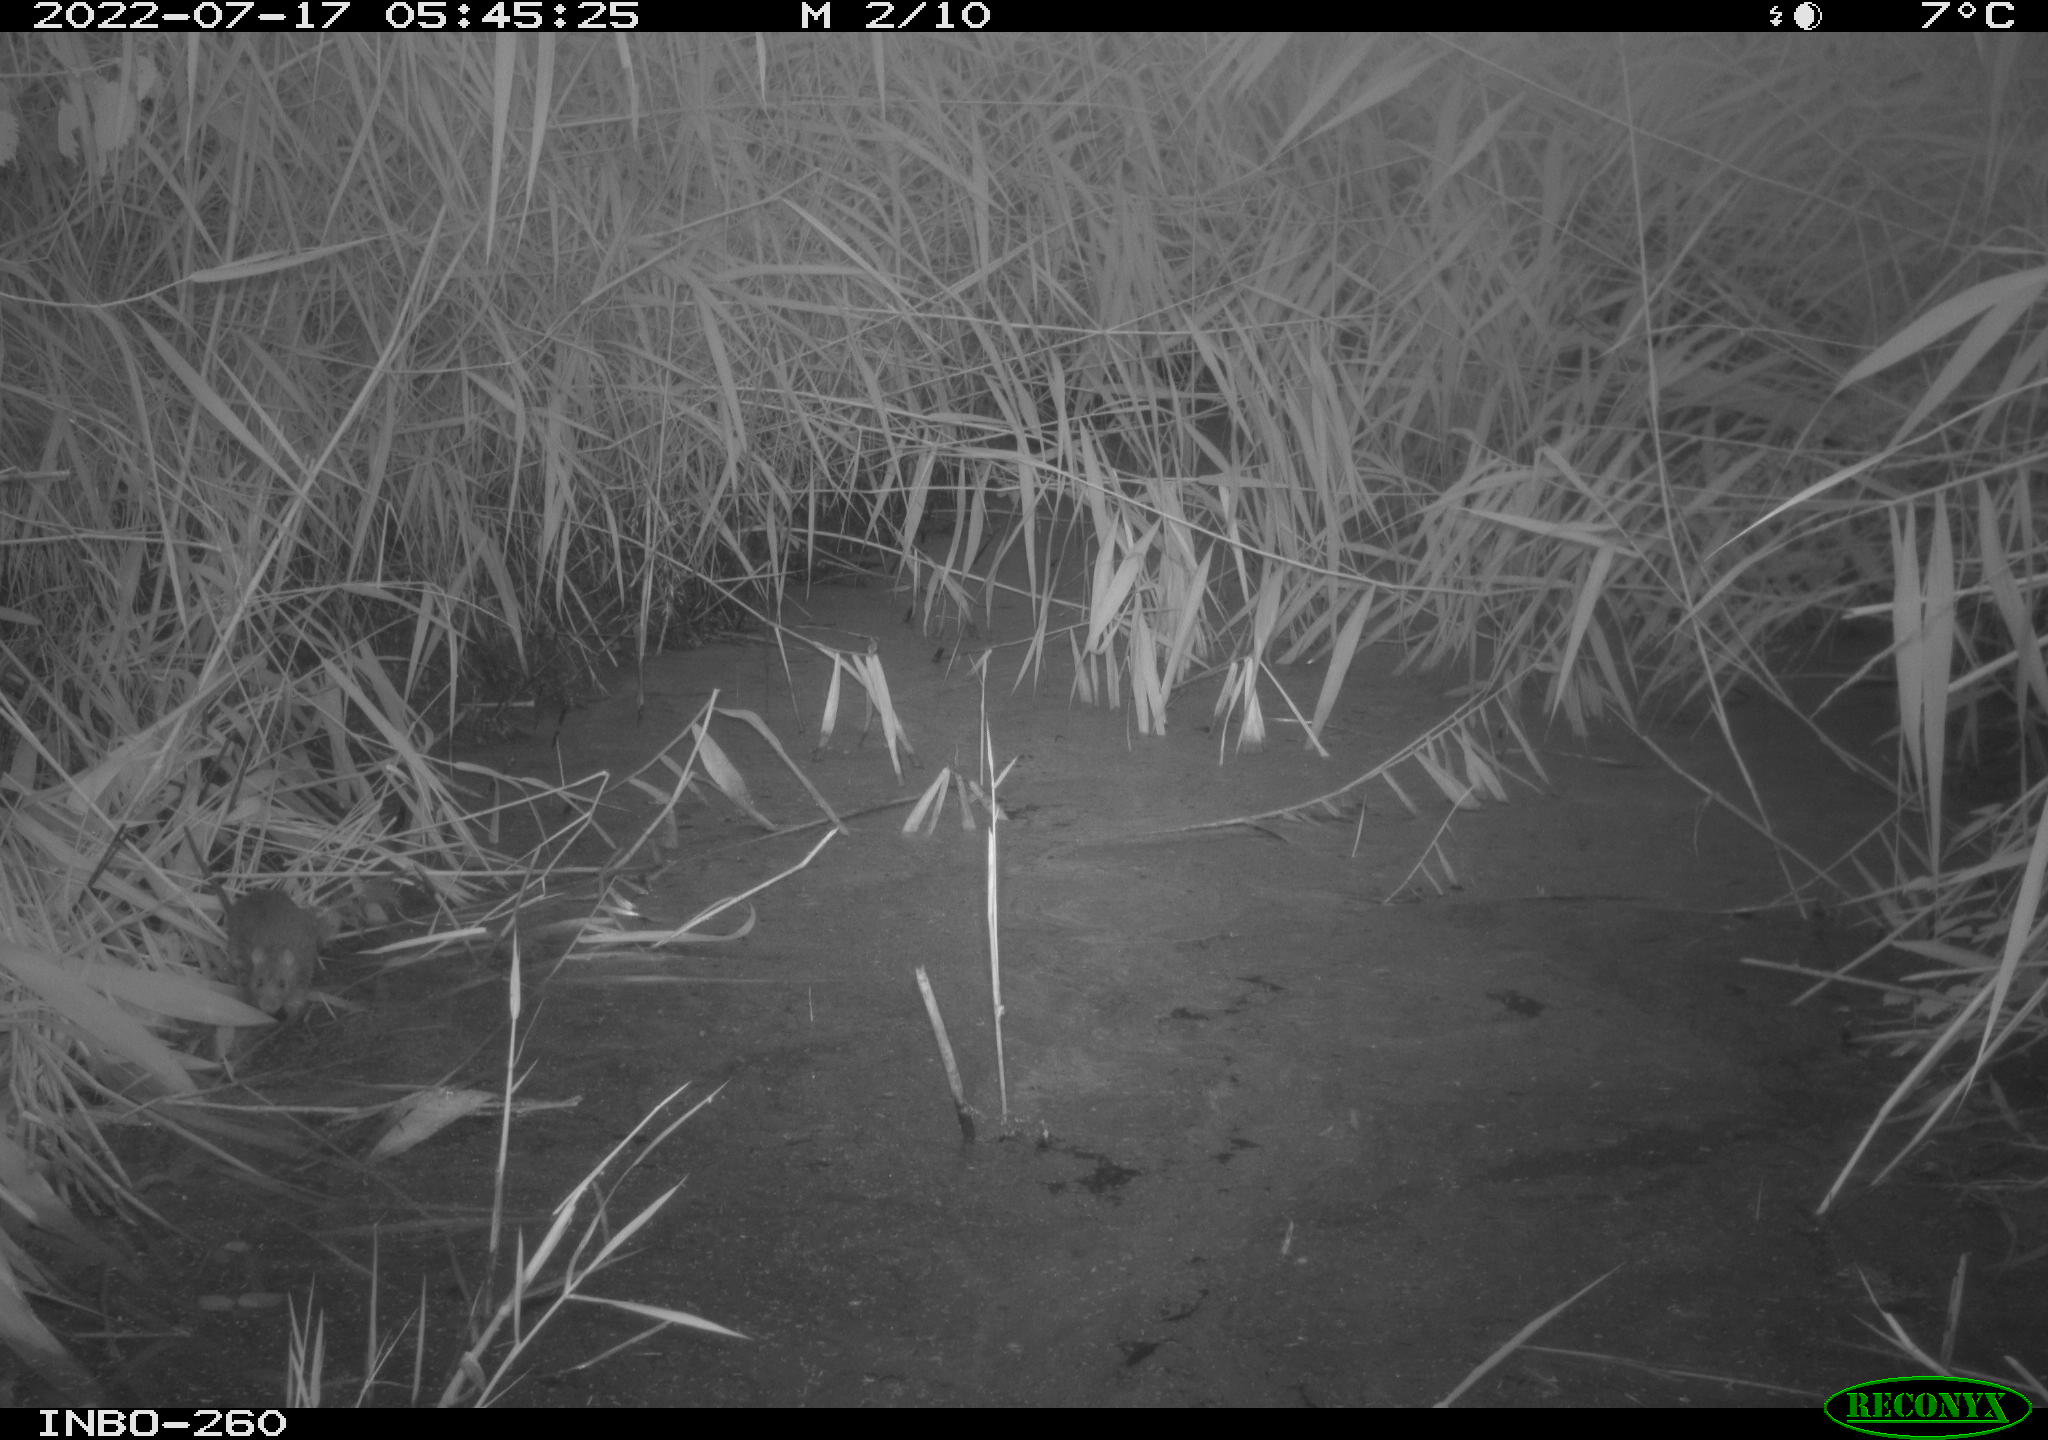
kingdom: Animalia
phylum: Chordata
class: Mammalia
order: Rodentia
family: Muridae
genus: Rattus
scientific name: Rattus norvegicus
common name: Brown rat
